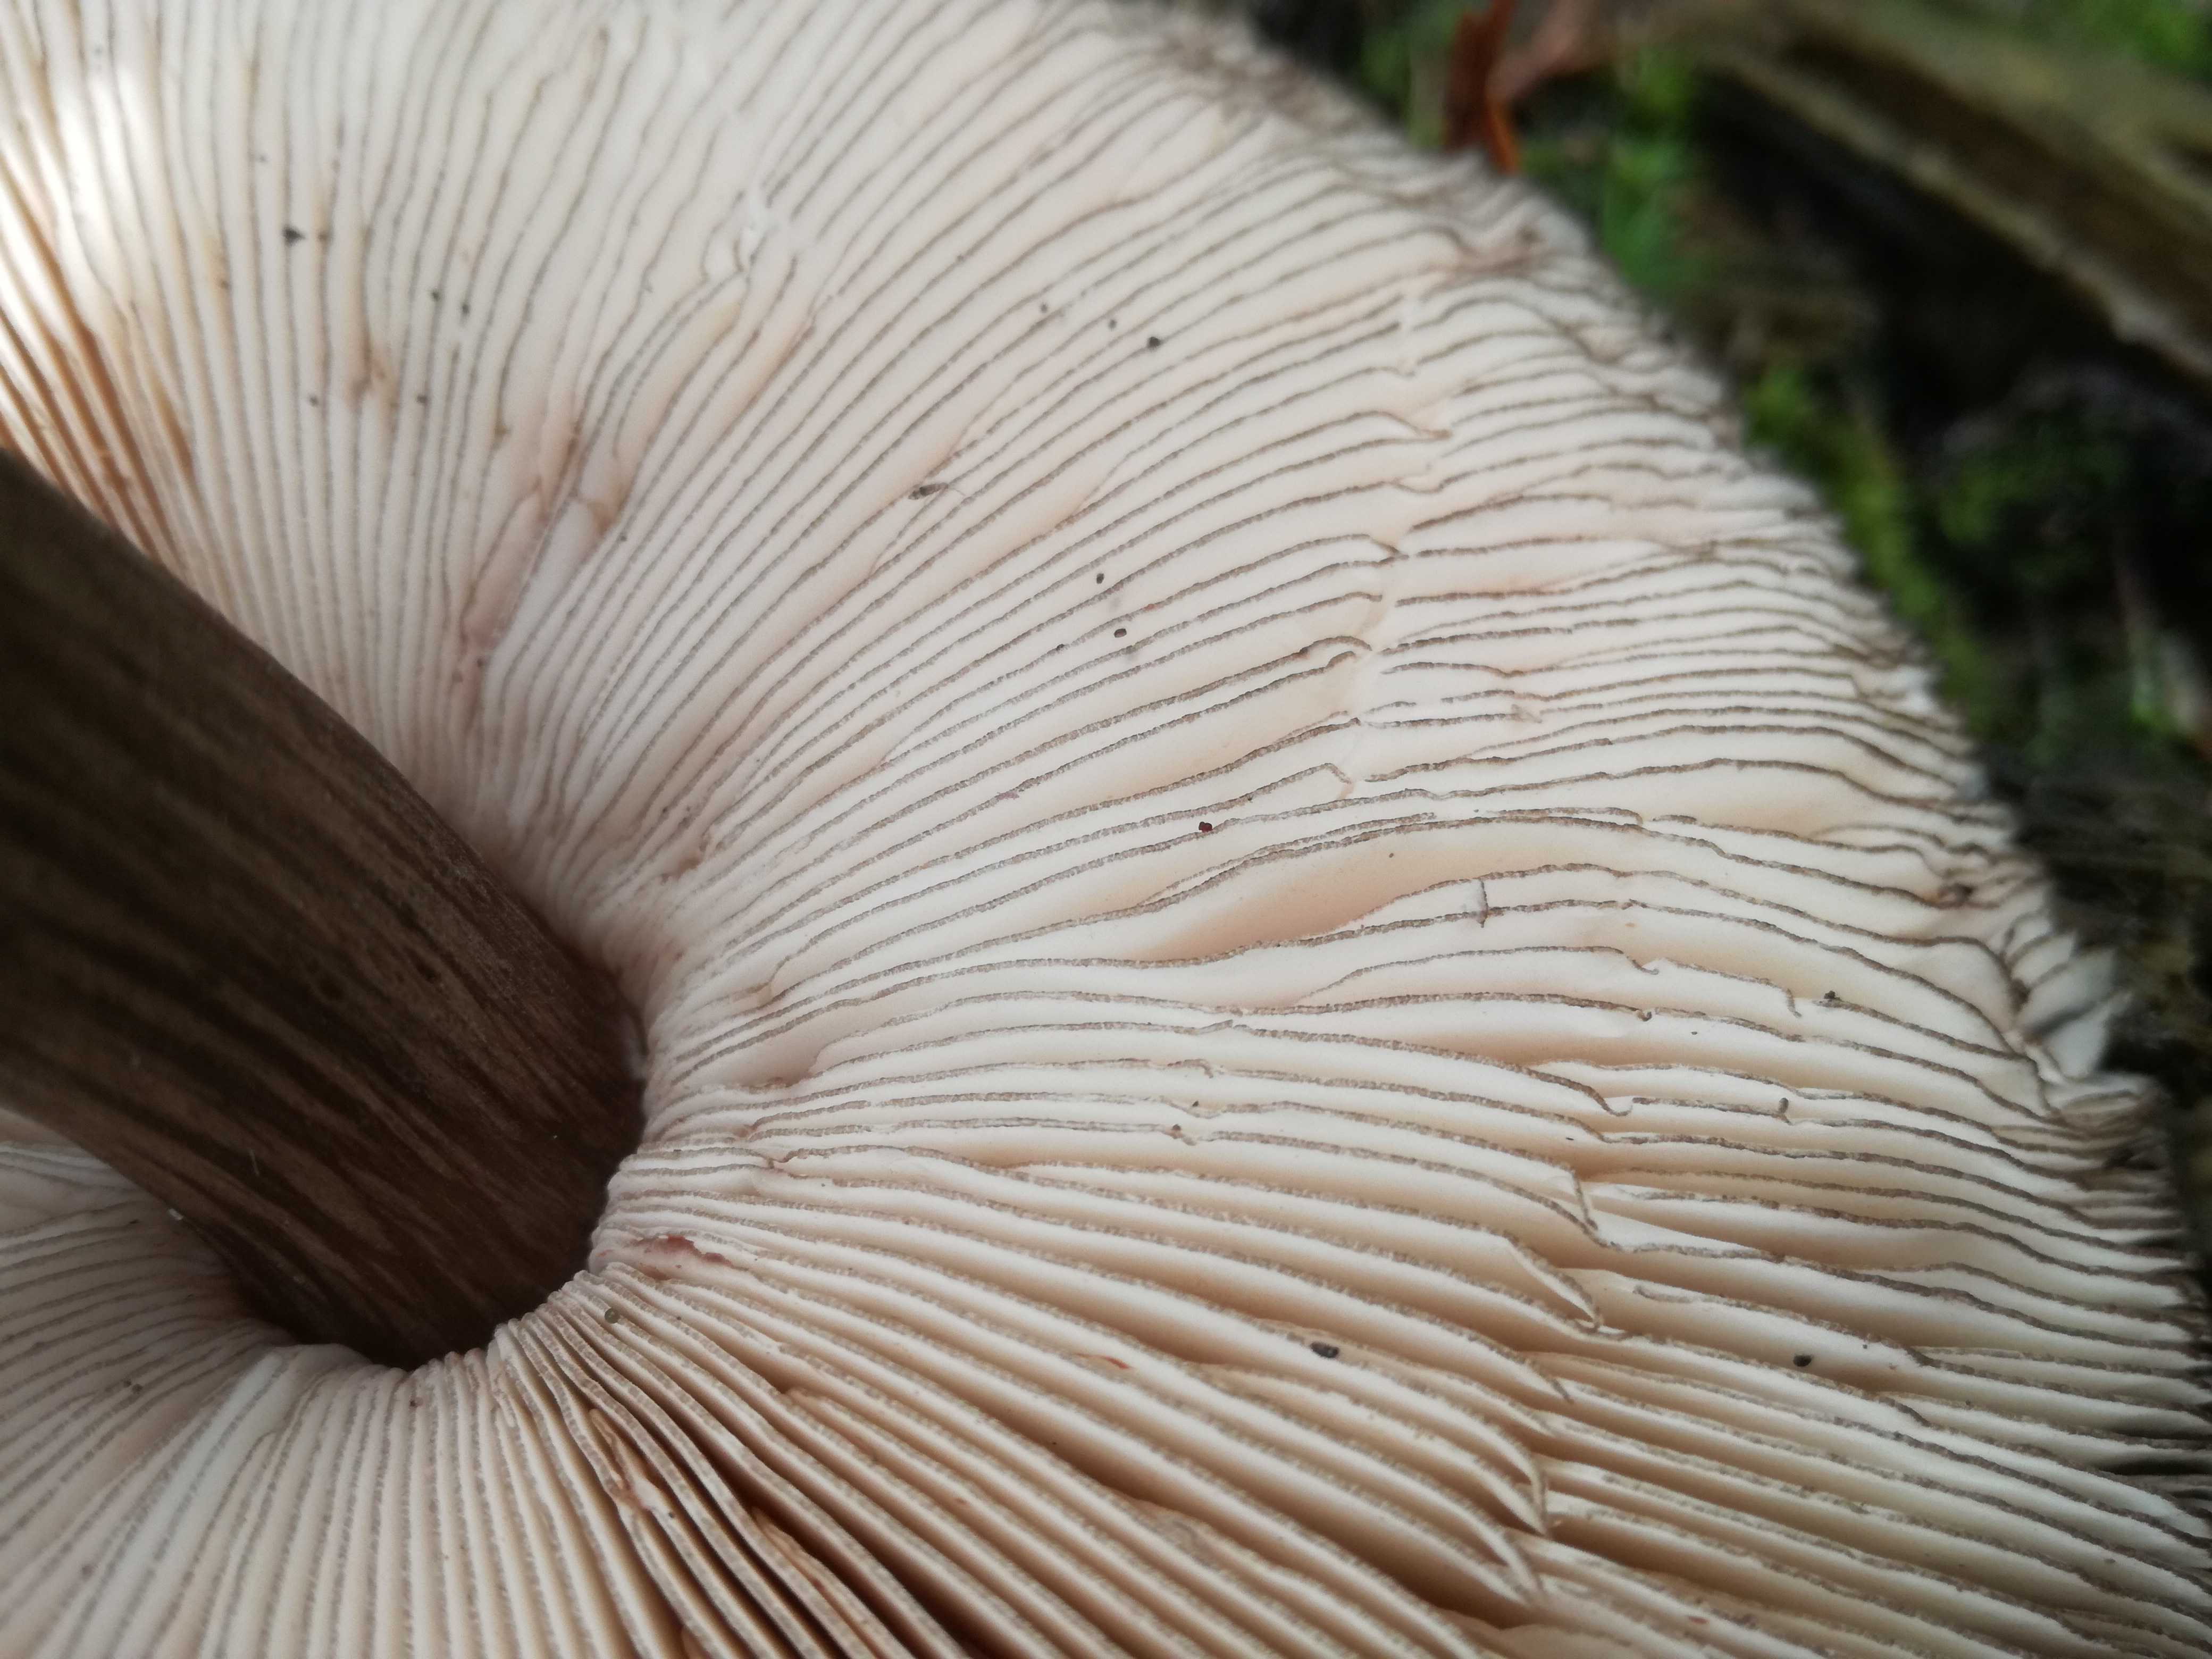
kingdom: Fungi
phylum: Basidiomycota
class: Agaricomycetes
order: Agaricales
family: Pluteaceae
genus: Pluteus
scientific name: Pluteus atromarginatus
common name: sortrandet skærmhat
